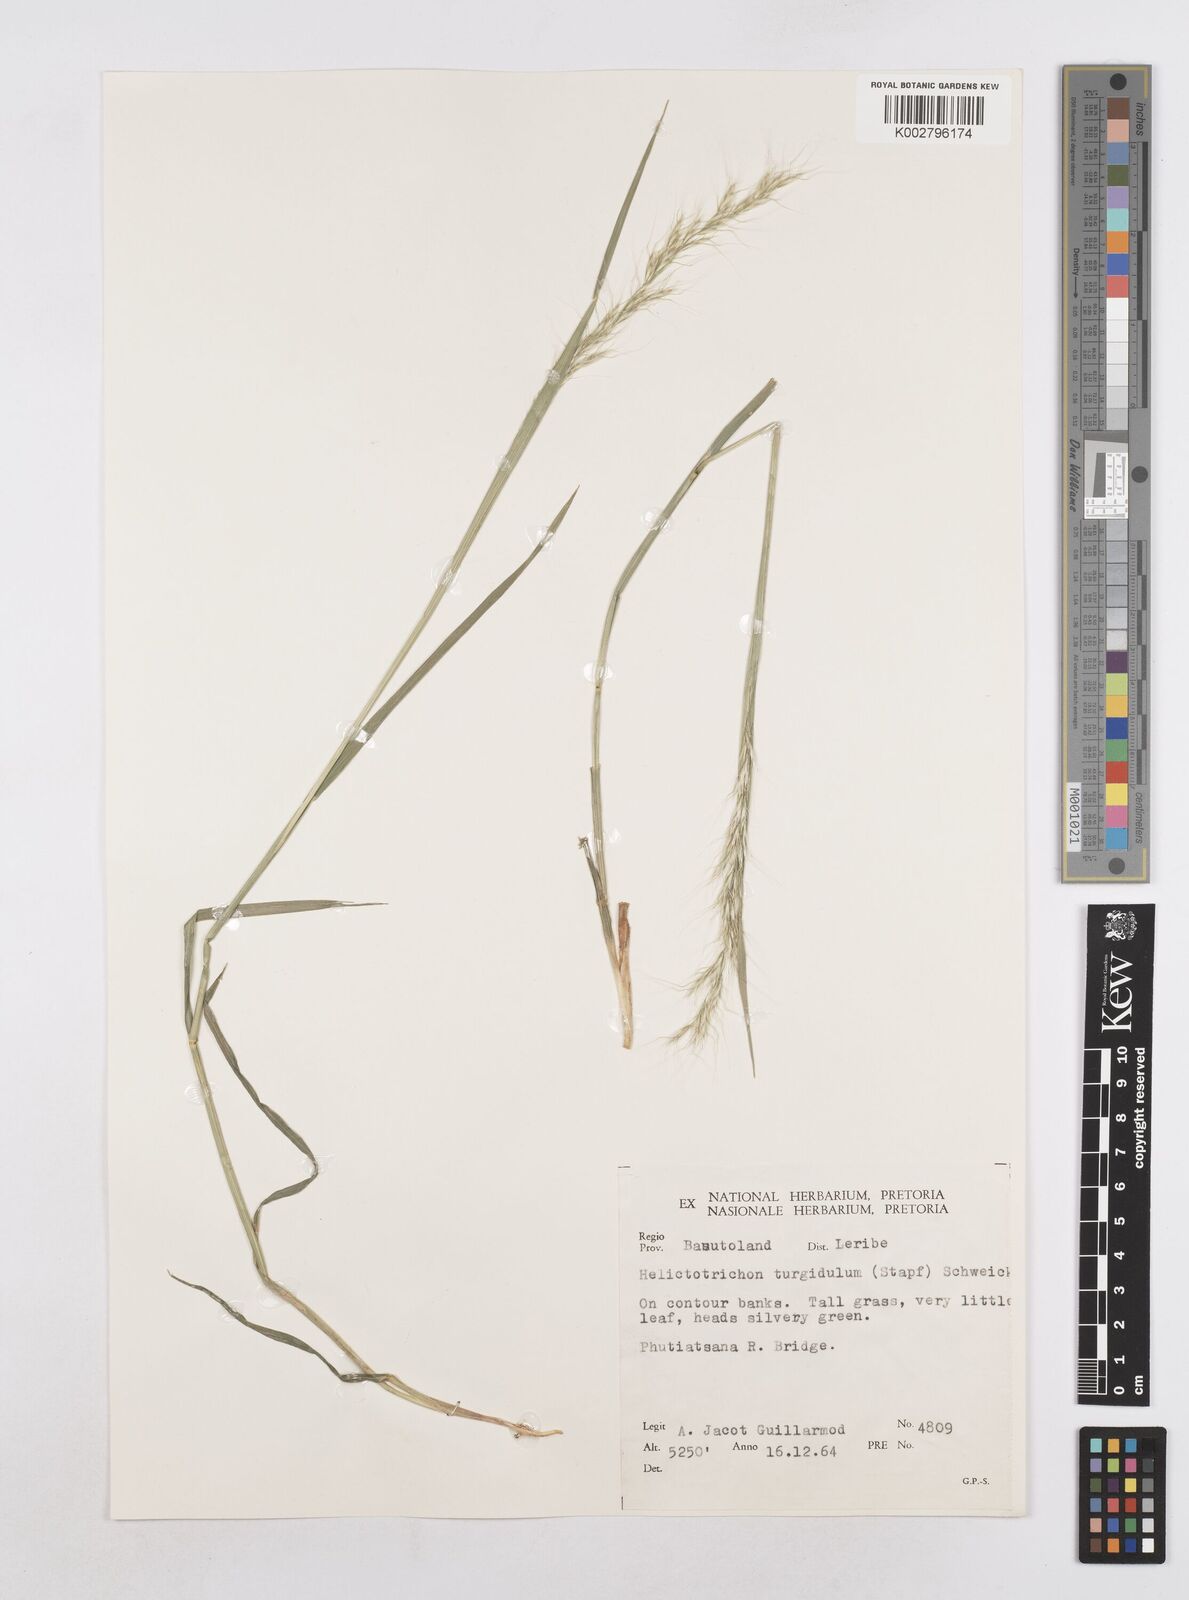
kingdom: Plantae
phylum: Tracheophyta
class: Liliopsida
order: Poales
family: Poaceae
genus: Trisetopsis
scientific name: Trisetopsis imberbis
